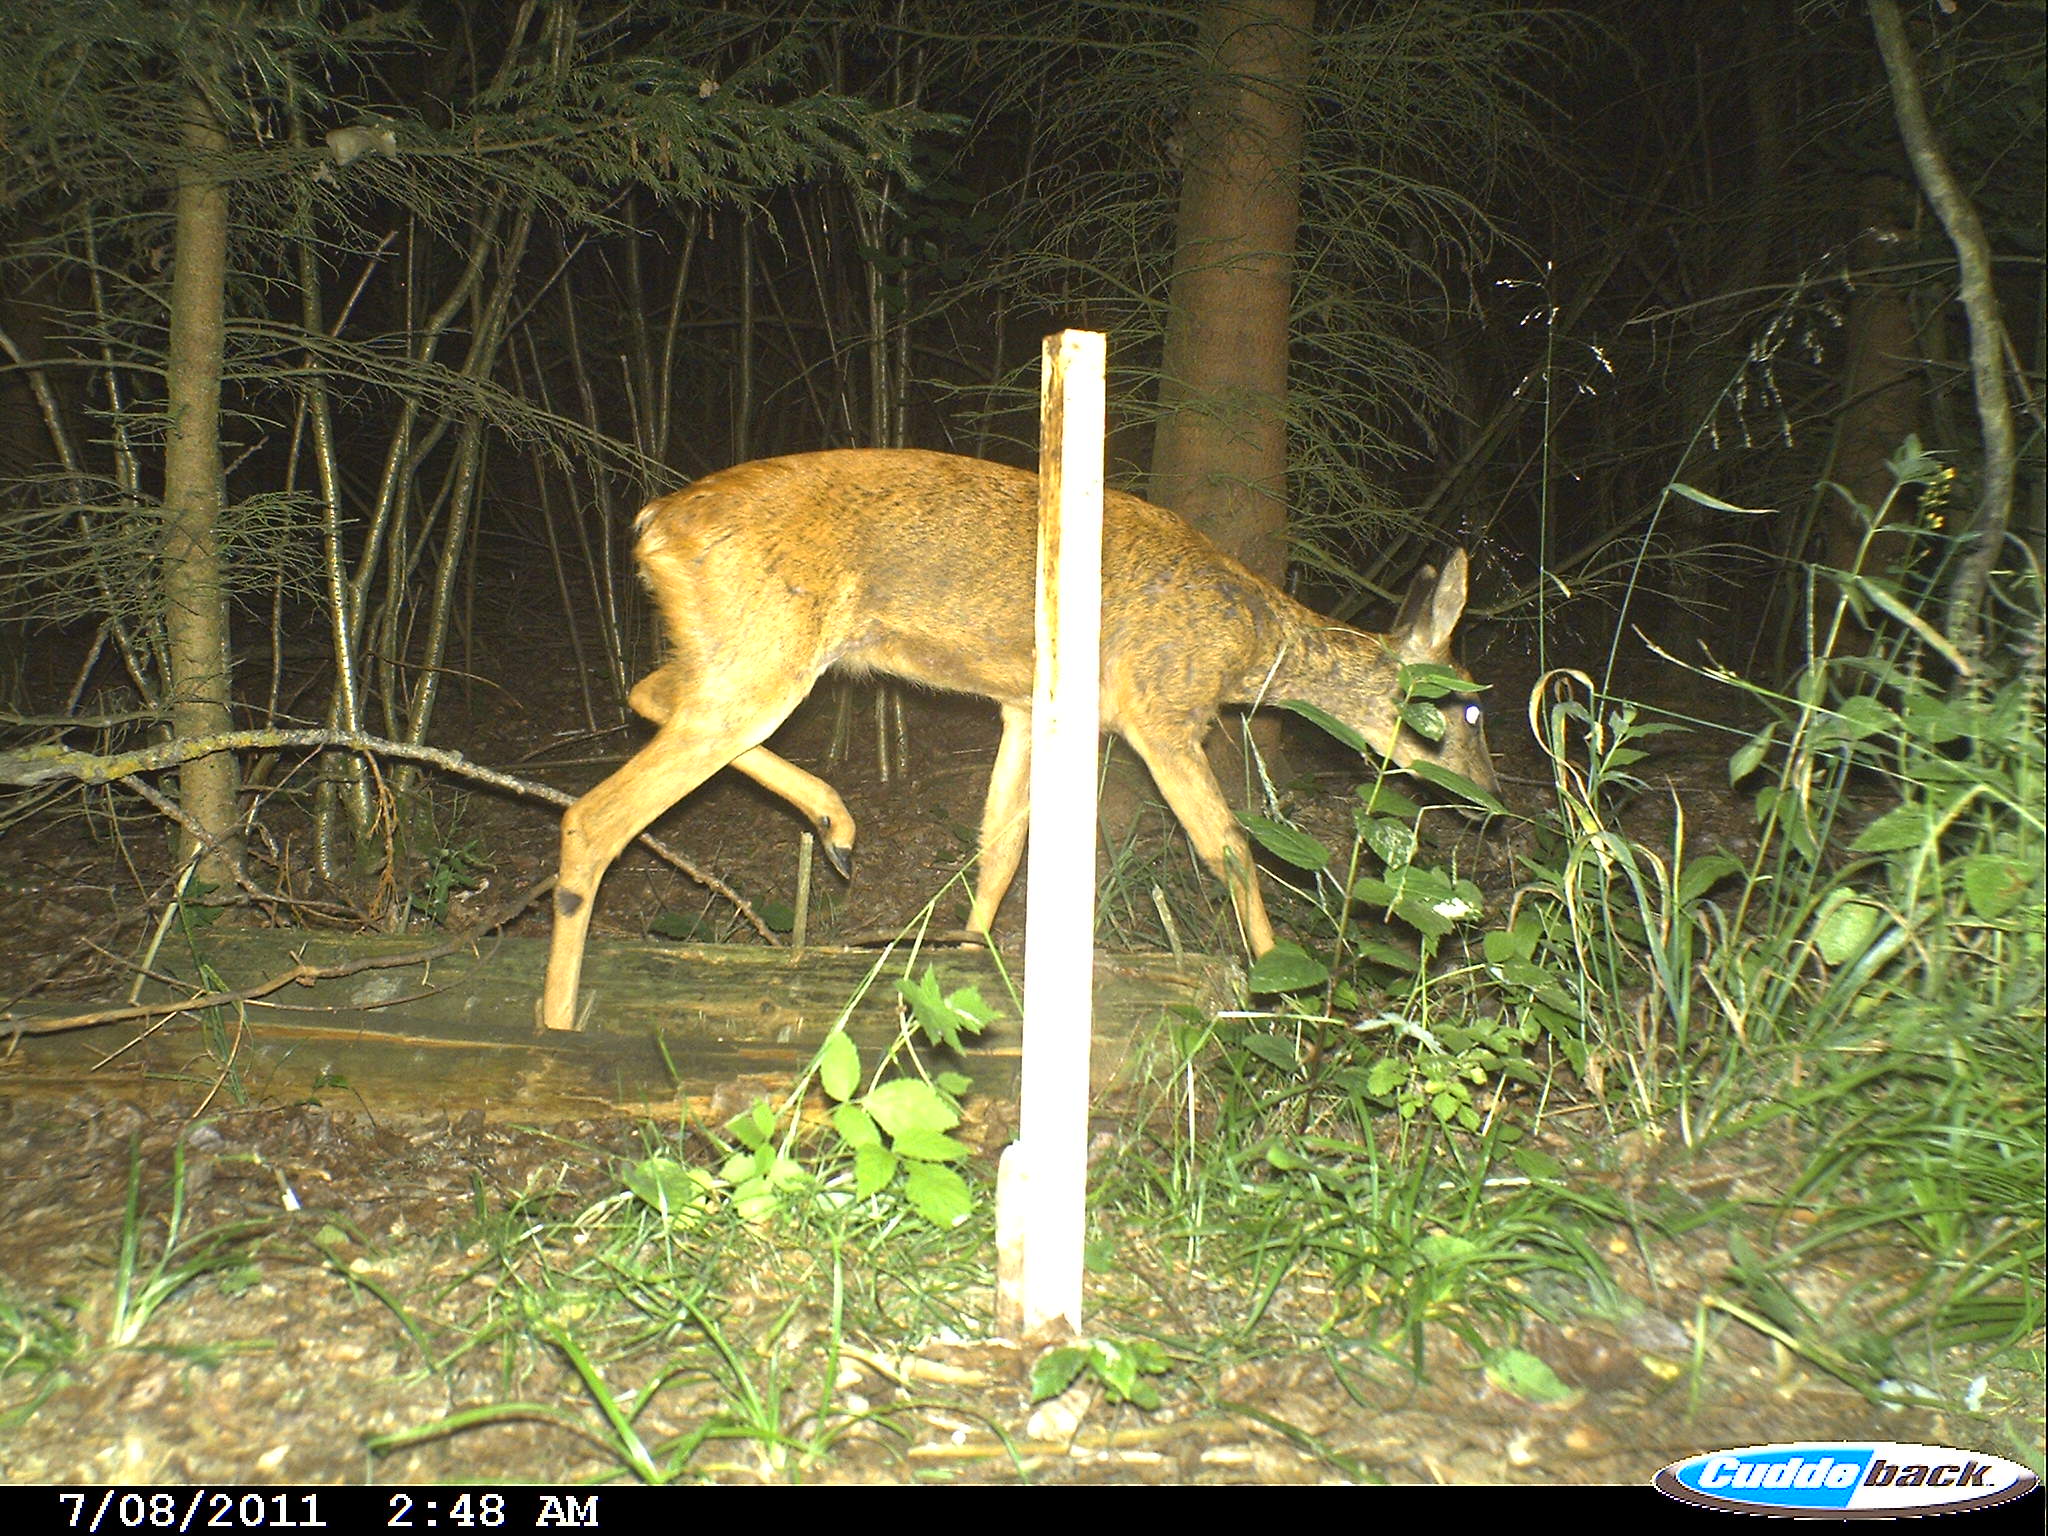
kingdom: Animalia
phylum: Chordata
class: Mammalia
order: Artiodactyla
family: Cervidae
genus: Capreolus
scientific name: Capreolus capreolus
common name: Western roe deer
